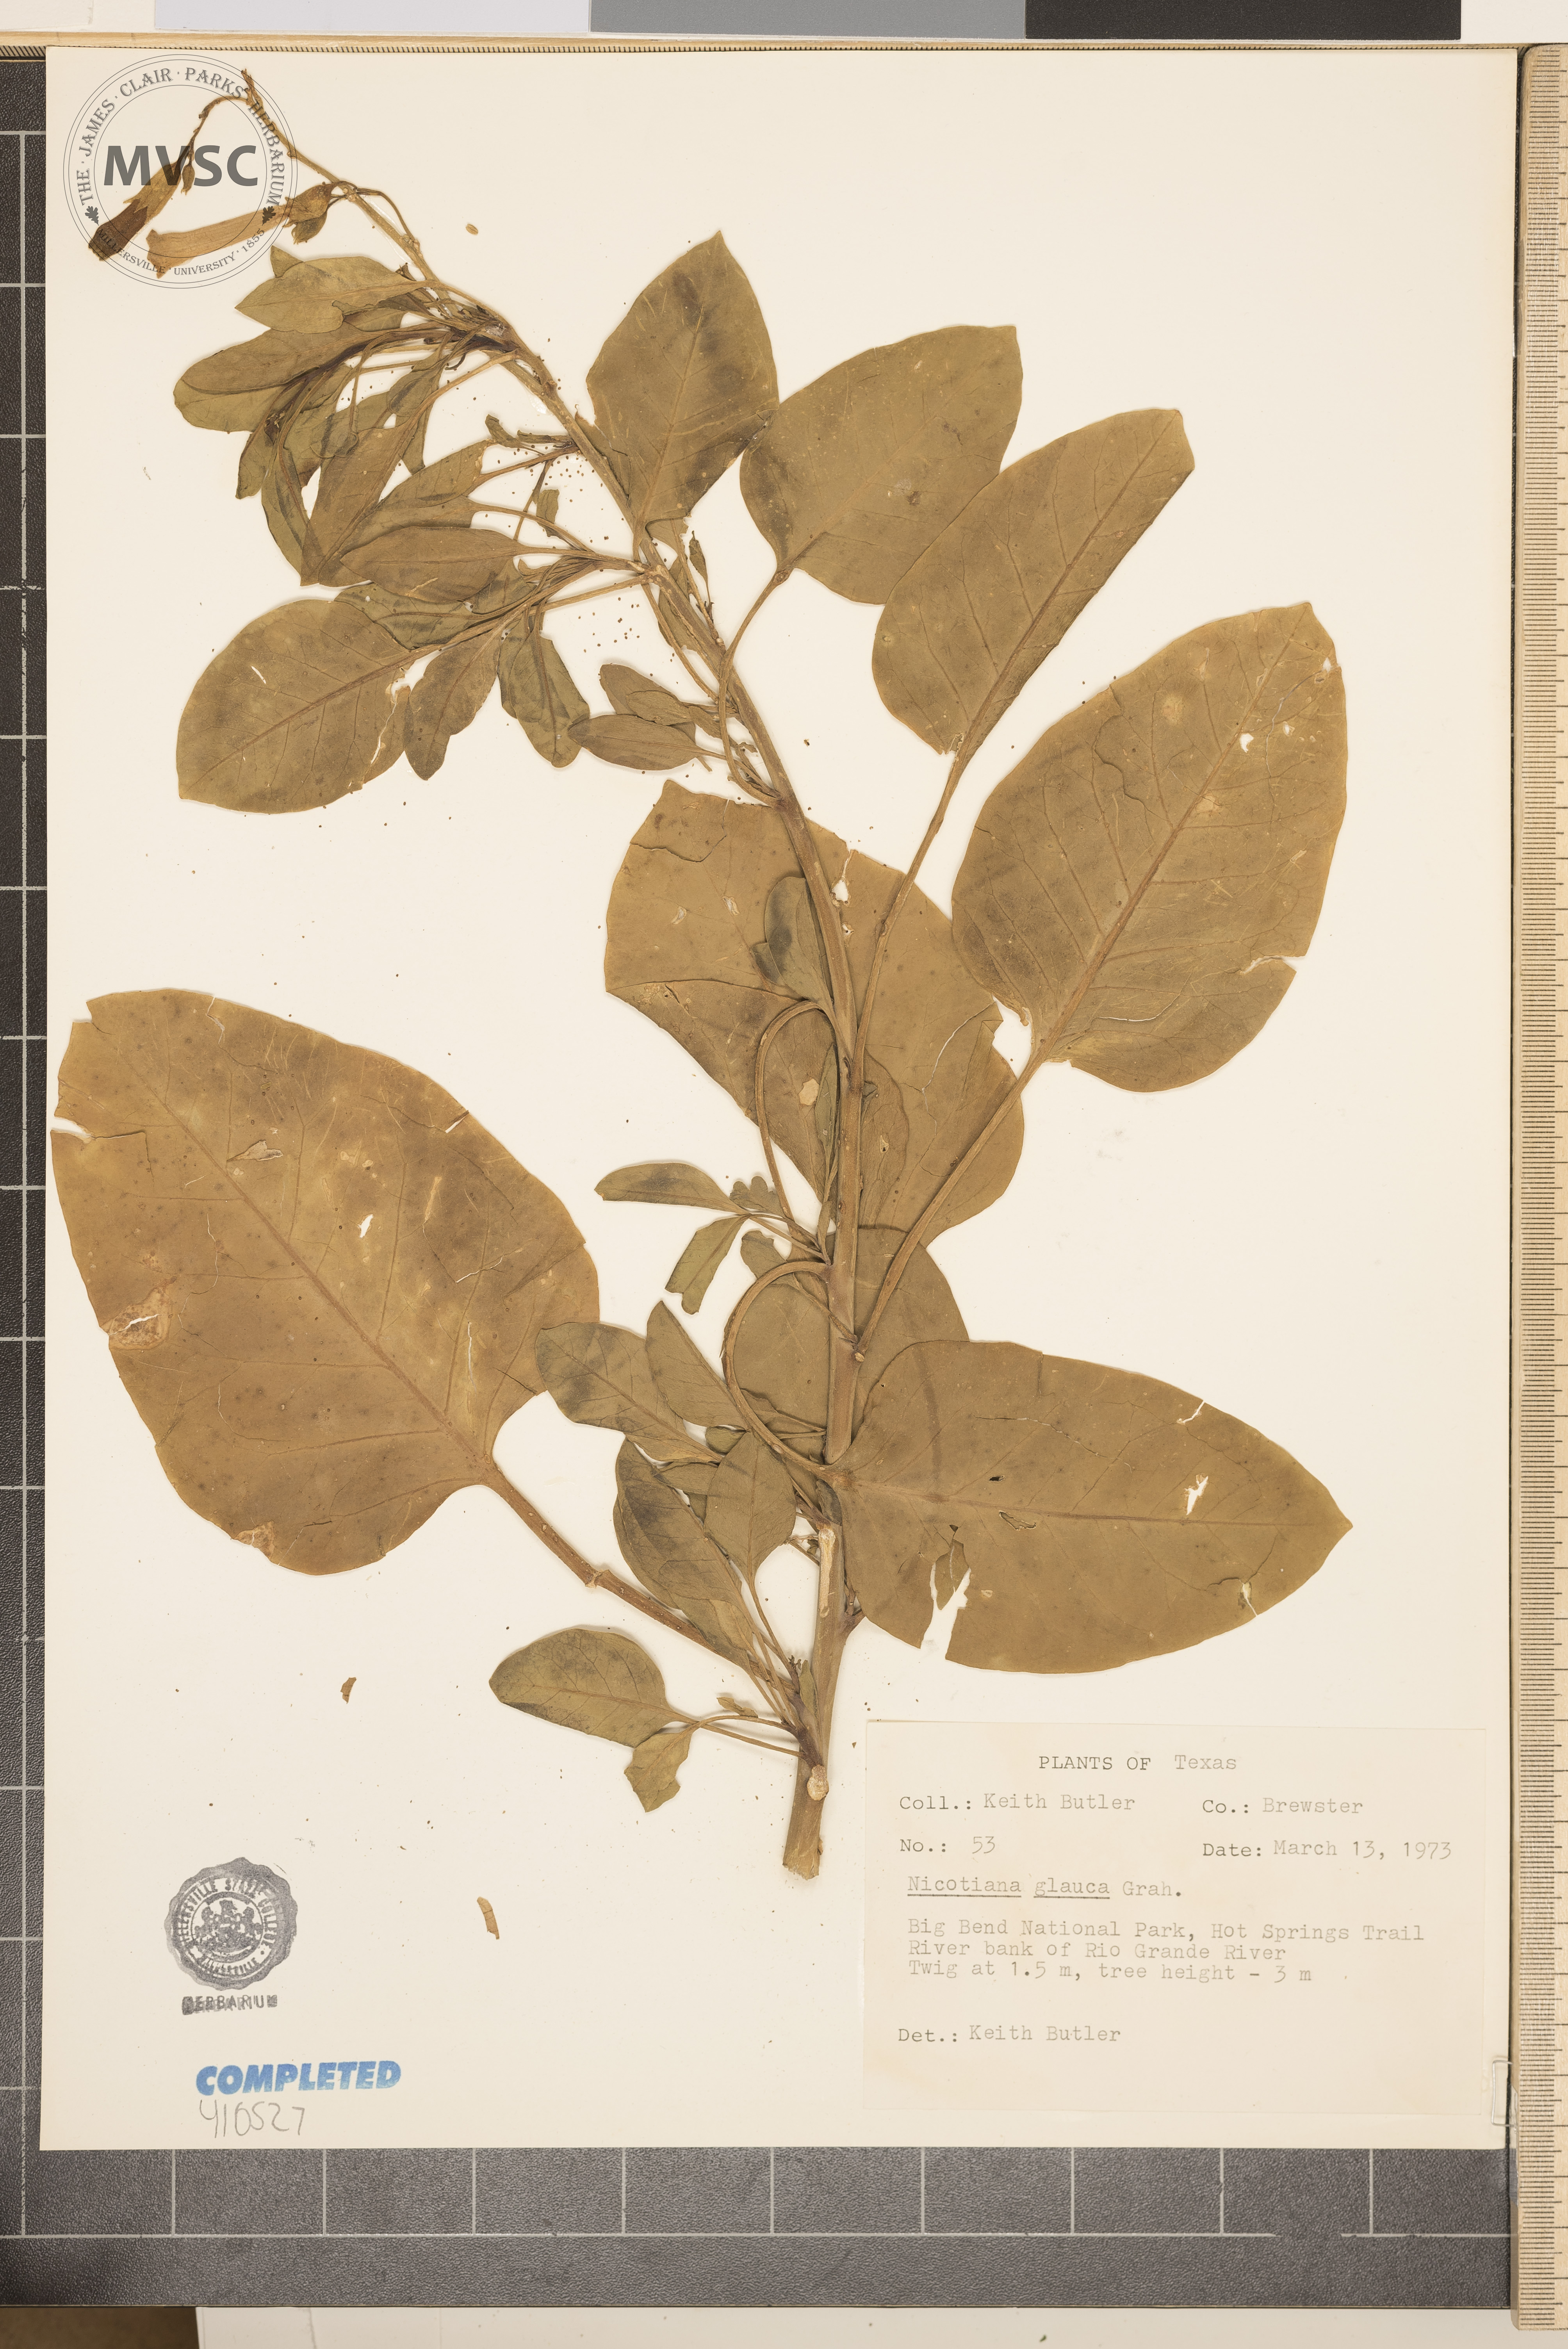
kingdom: Plantae
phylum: Tracheophyta
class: Magnoliopsida
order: Solanales
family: Solanaceae
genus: Nicotiana
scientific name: Nicotiana glauca
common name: Tree tobacco
